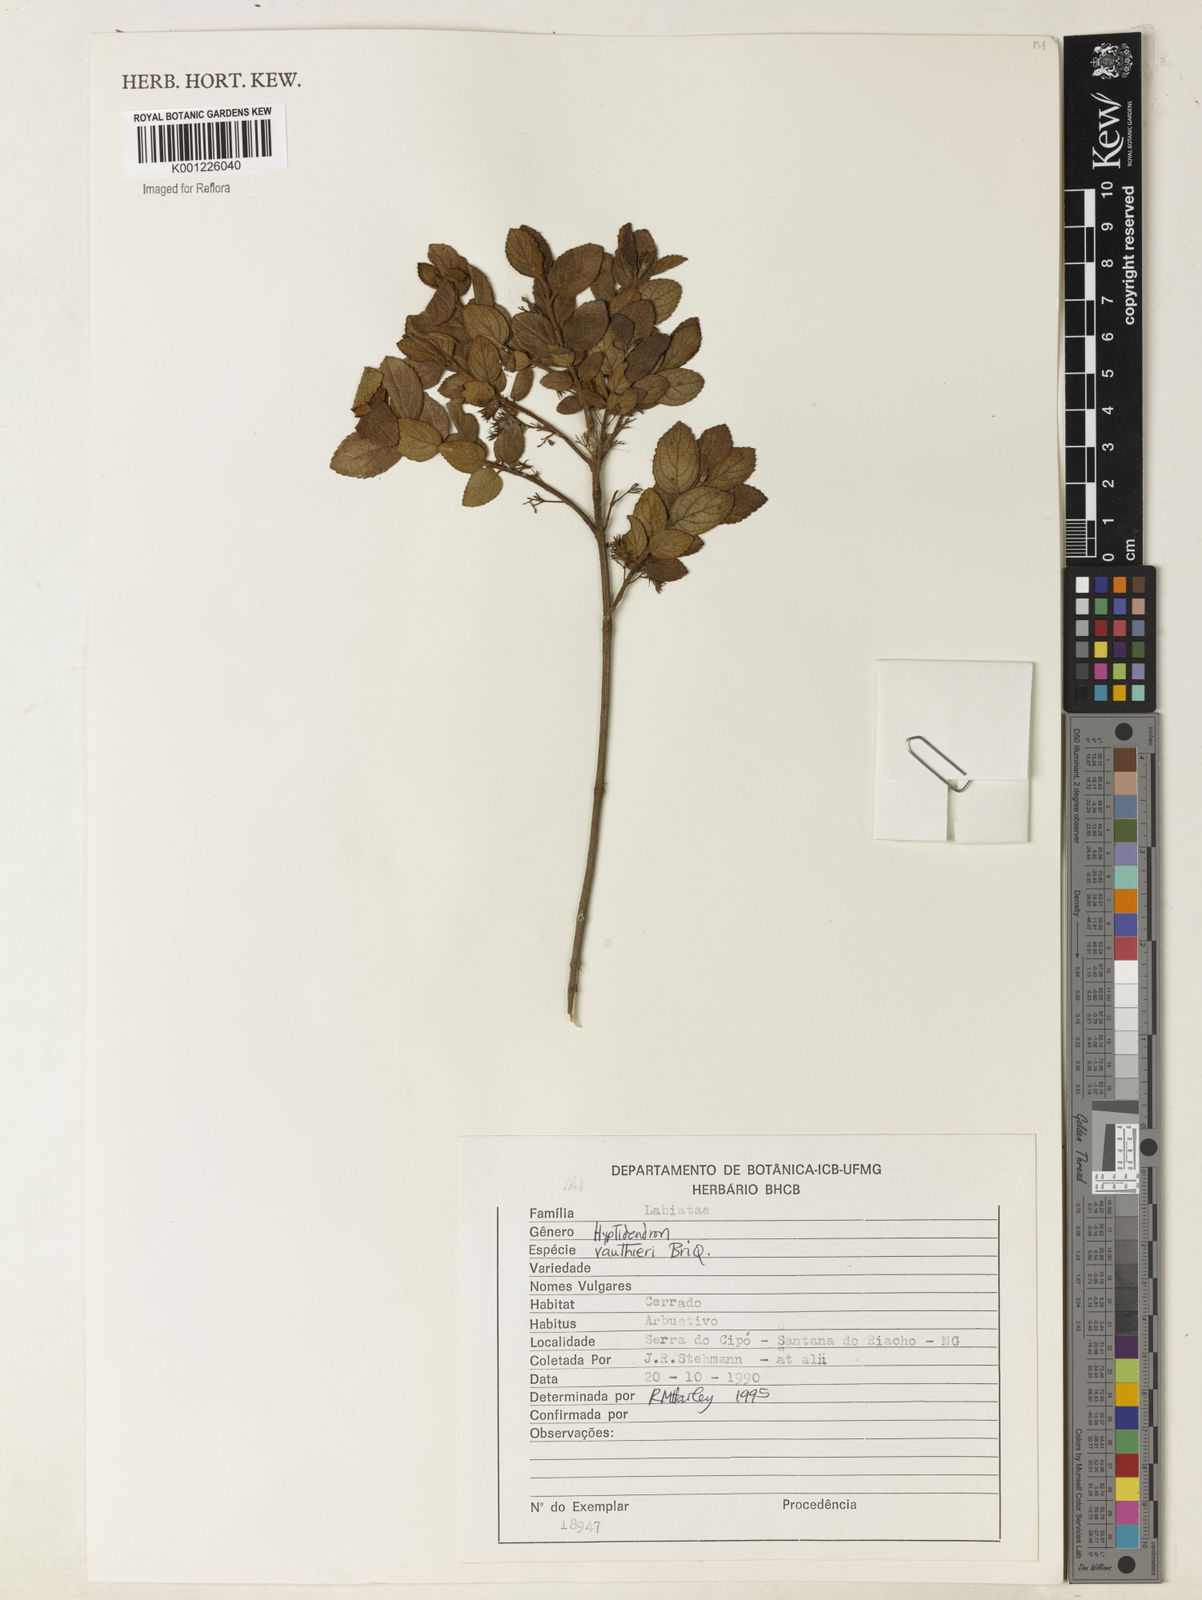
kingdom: Plantae
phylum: Tracheophyta
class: Magnoliopsida
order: Lamiales
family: Lamiaceae
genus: Hyptidendron
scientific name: Hyptidendron vauthieri
